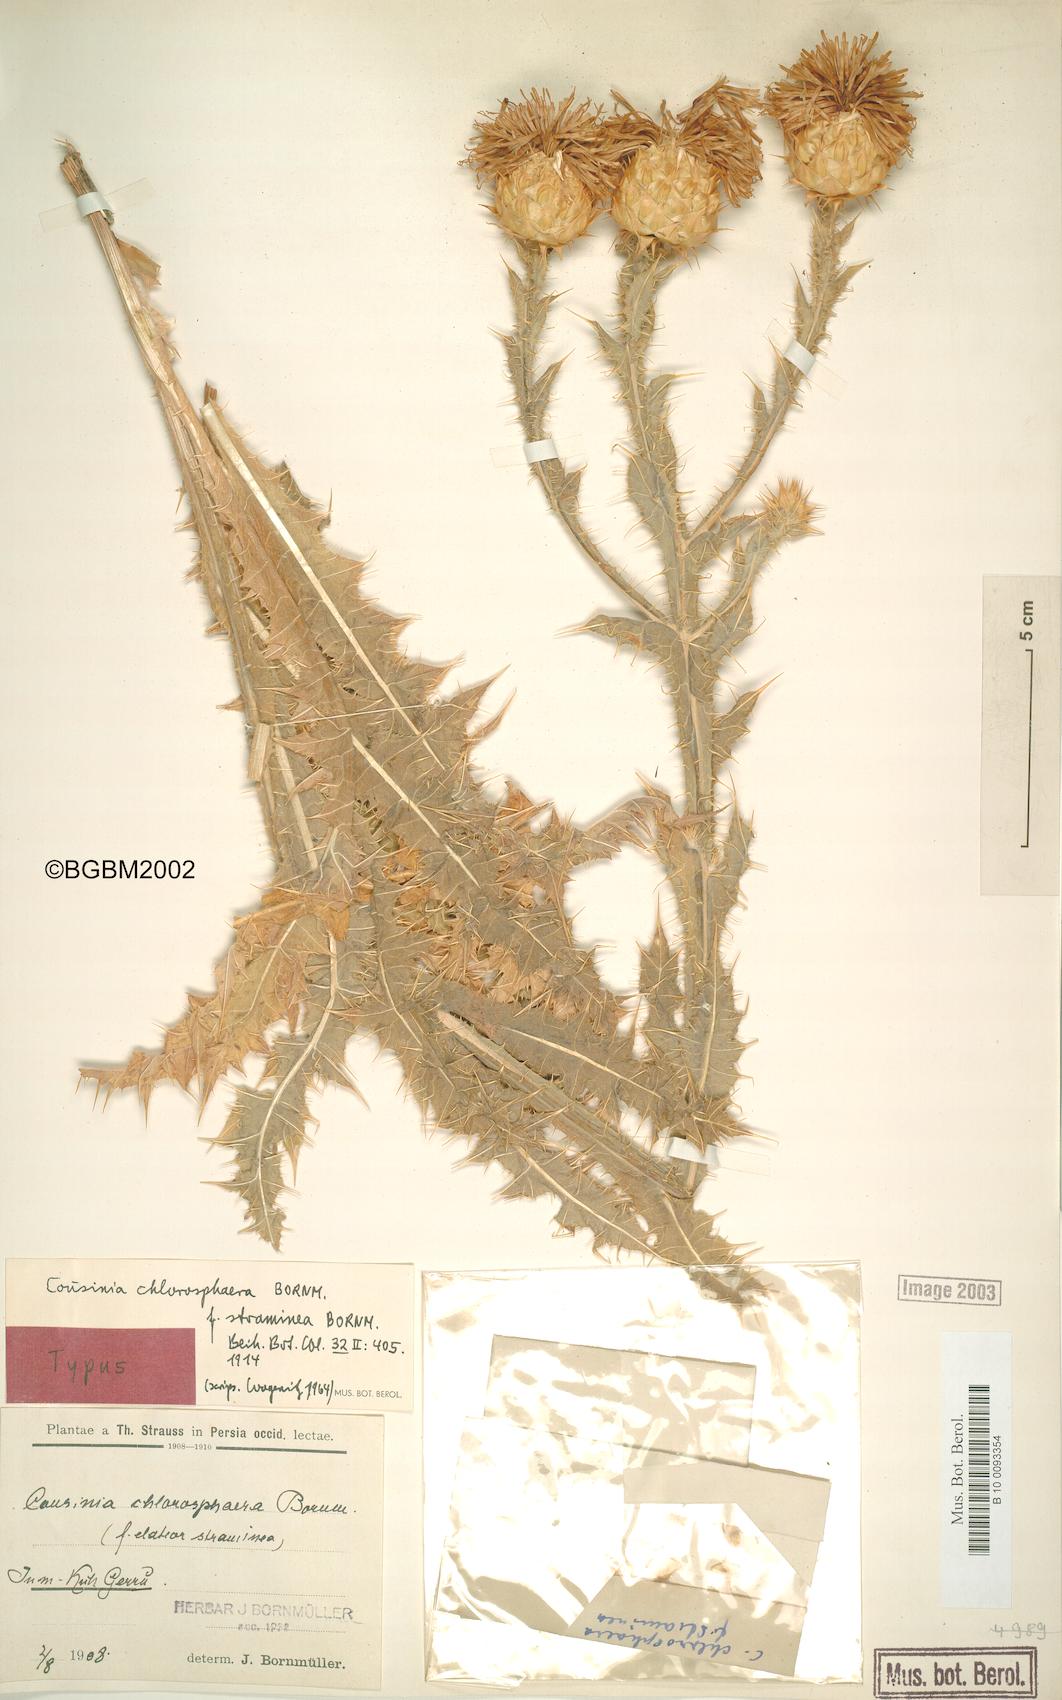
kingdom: Plantae
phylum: Tracheophyta
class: Magnoliopsida
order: Asterales
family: Asteraceae
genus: Cousinia
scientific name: Cousinia chlorosphaera
